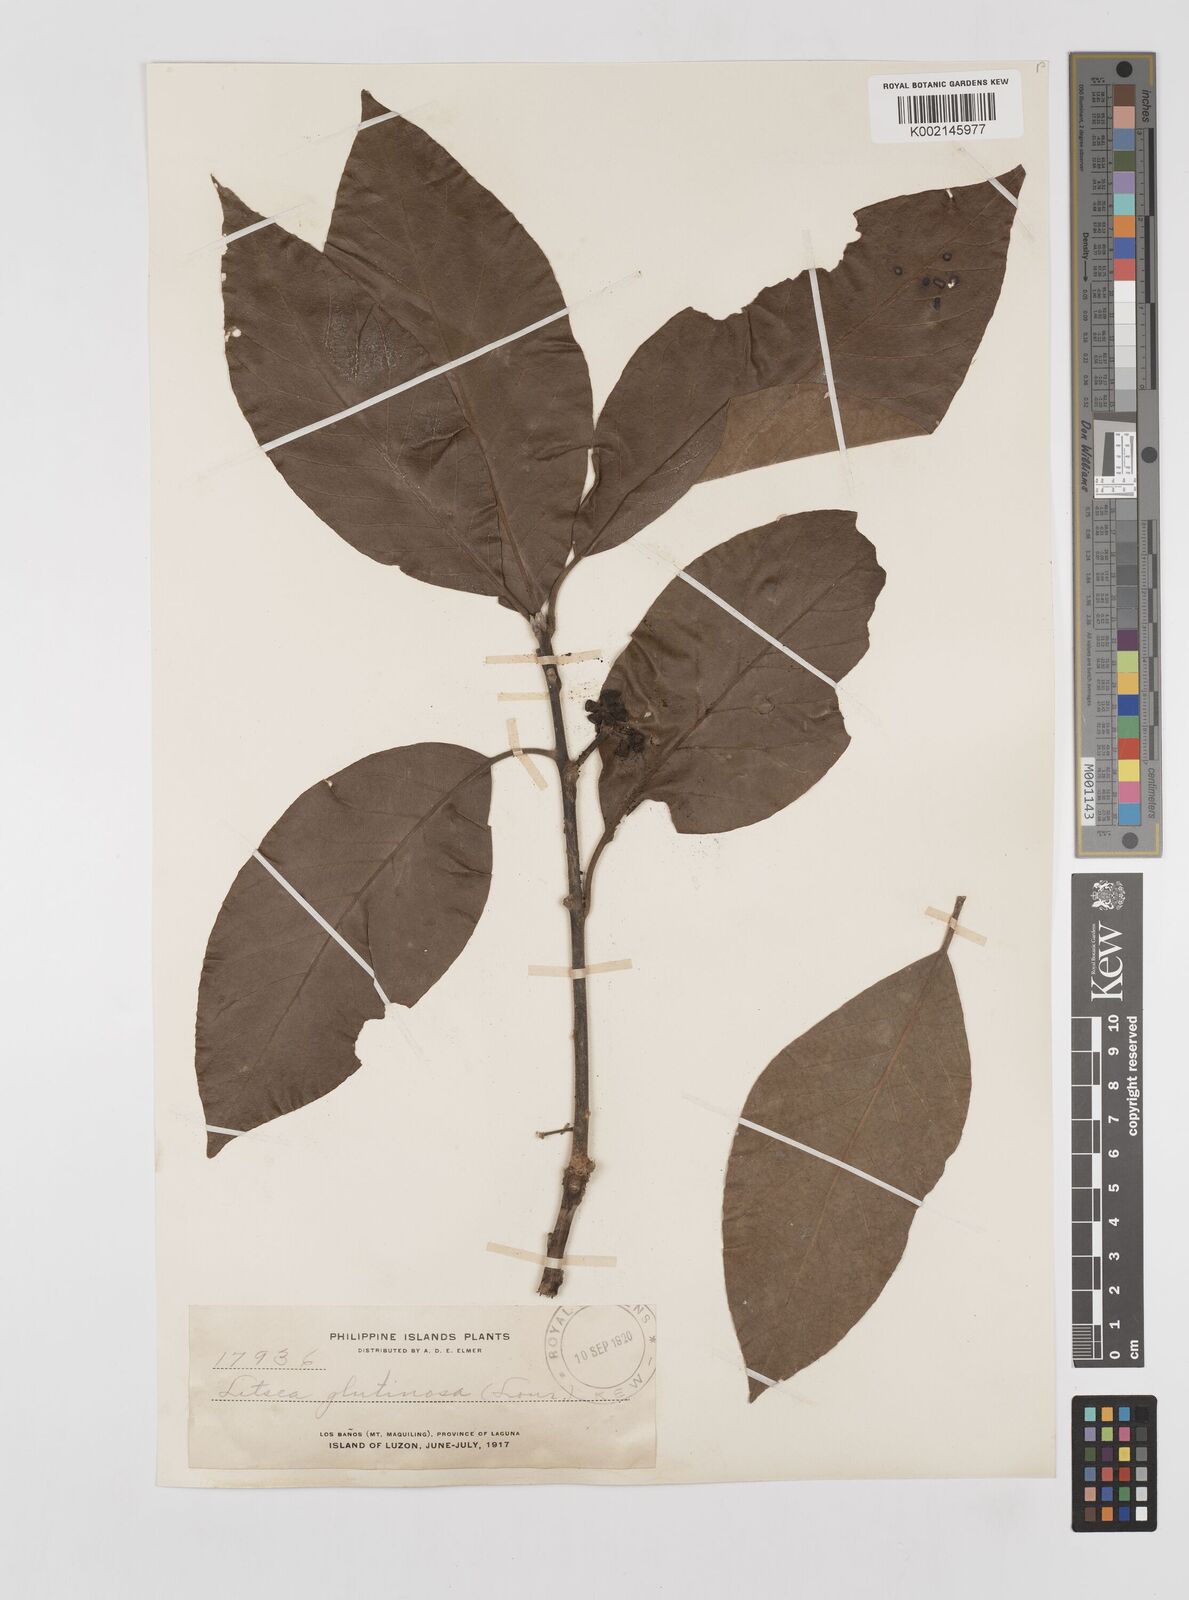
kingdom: Plantae
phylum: Tracheophyta
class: Magnoliopsida
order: Laurales
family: Lauraceae
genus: Litsea
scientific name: Litsea glutinosa
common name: Indian-laurel
